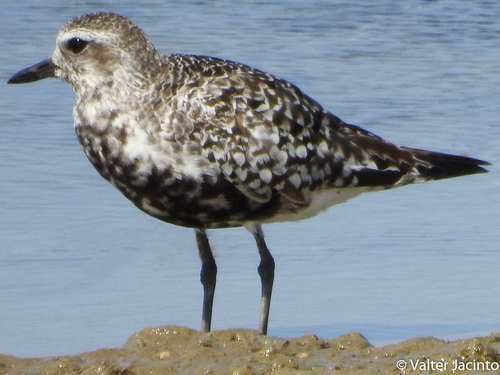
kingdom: Animalia
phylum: Chordata
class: Aves
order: Charadriiformes
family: Charadriidae
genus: Pluvialis
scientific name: Pluvialis squatarola
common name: Grey plover
